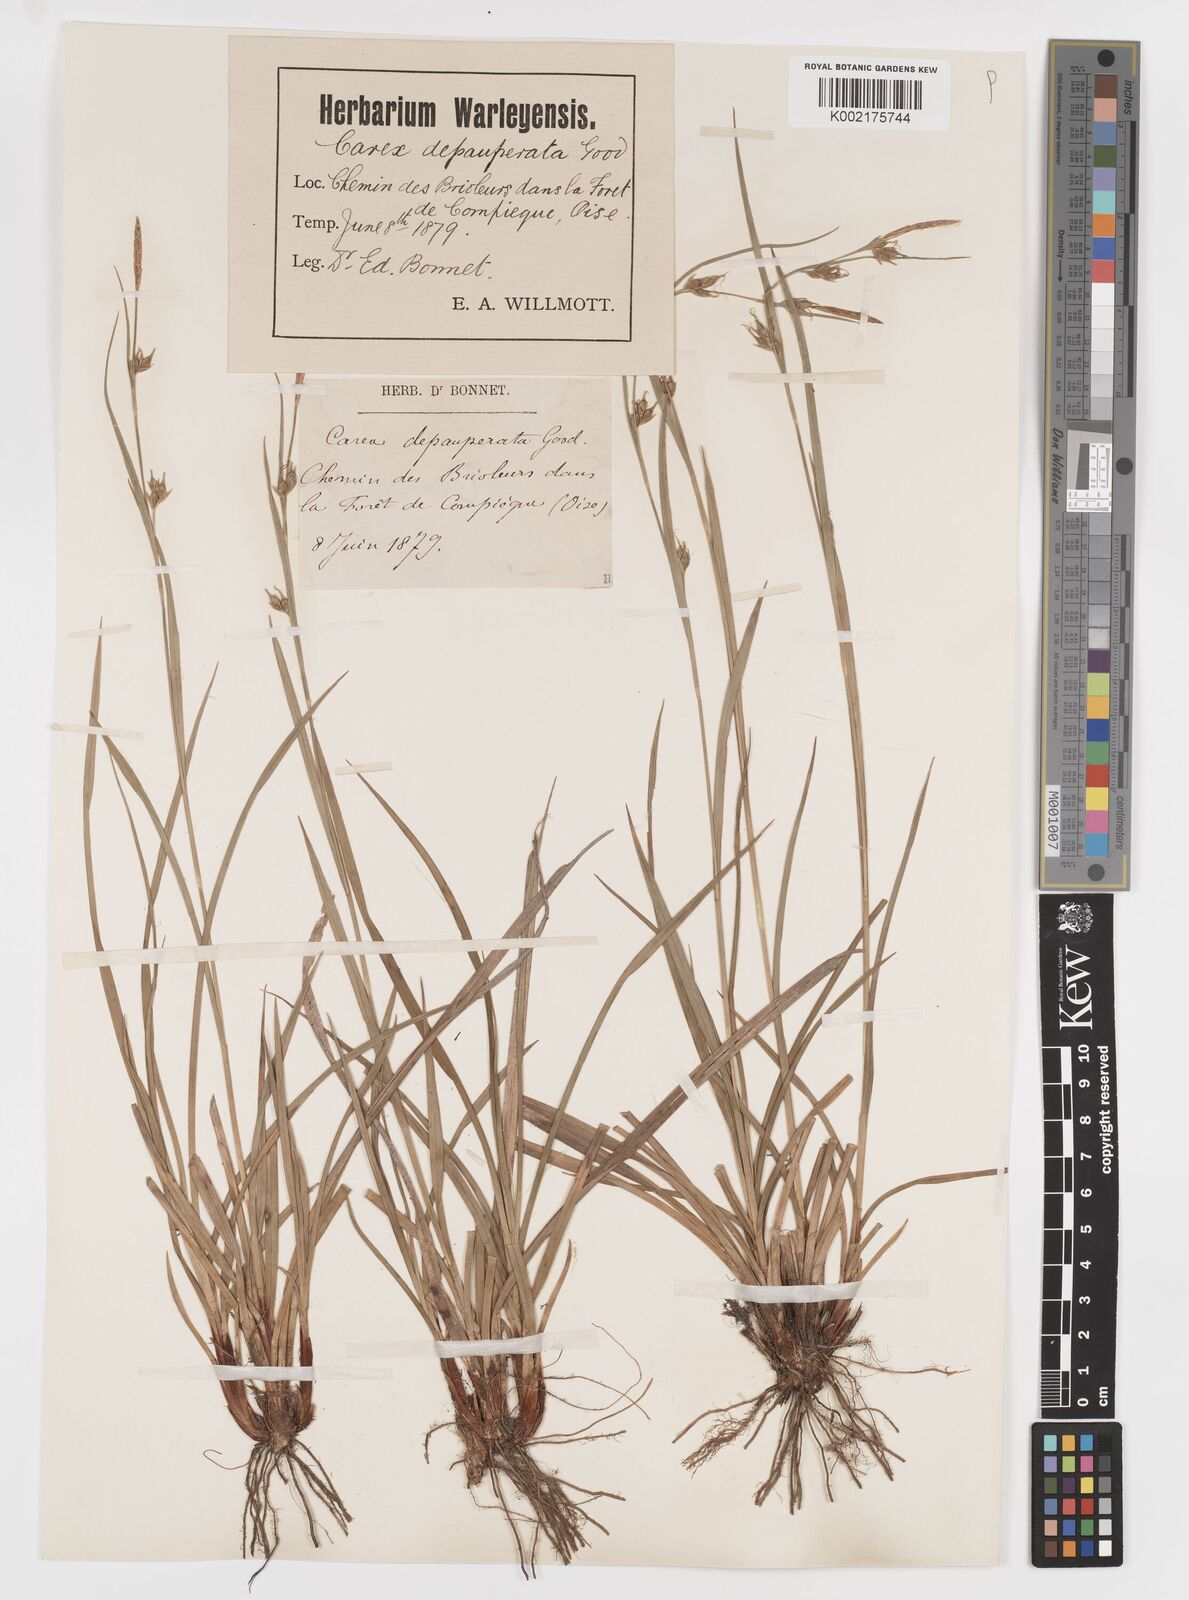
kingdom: Plantae
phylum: Tracheophyta
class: Liliopsida
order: Poales
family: Cyperaceae
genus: Carex
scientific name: Carex
